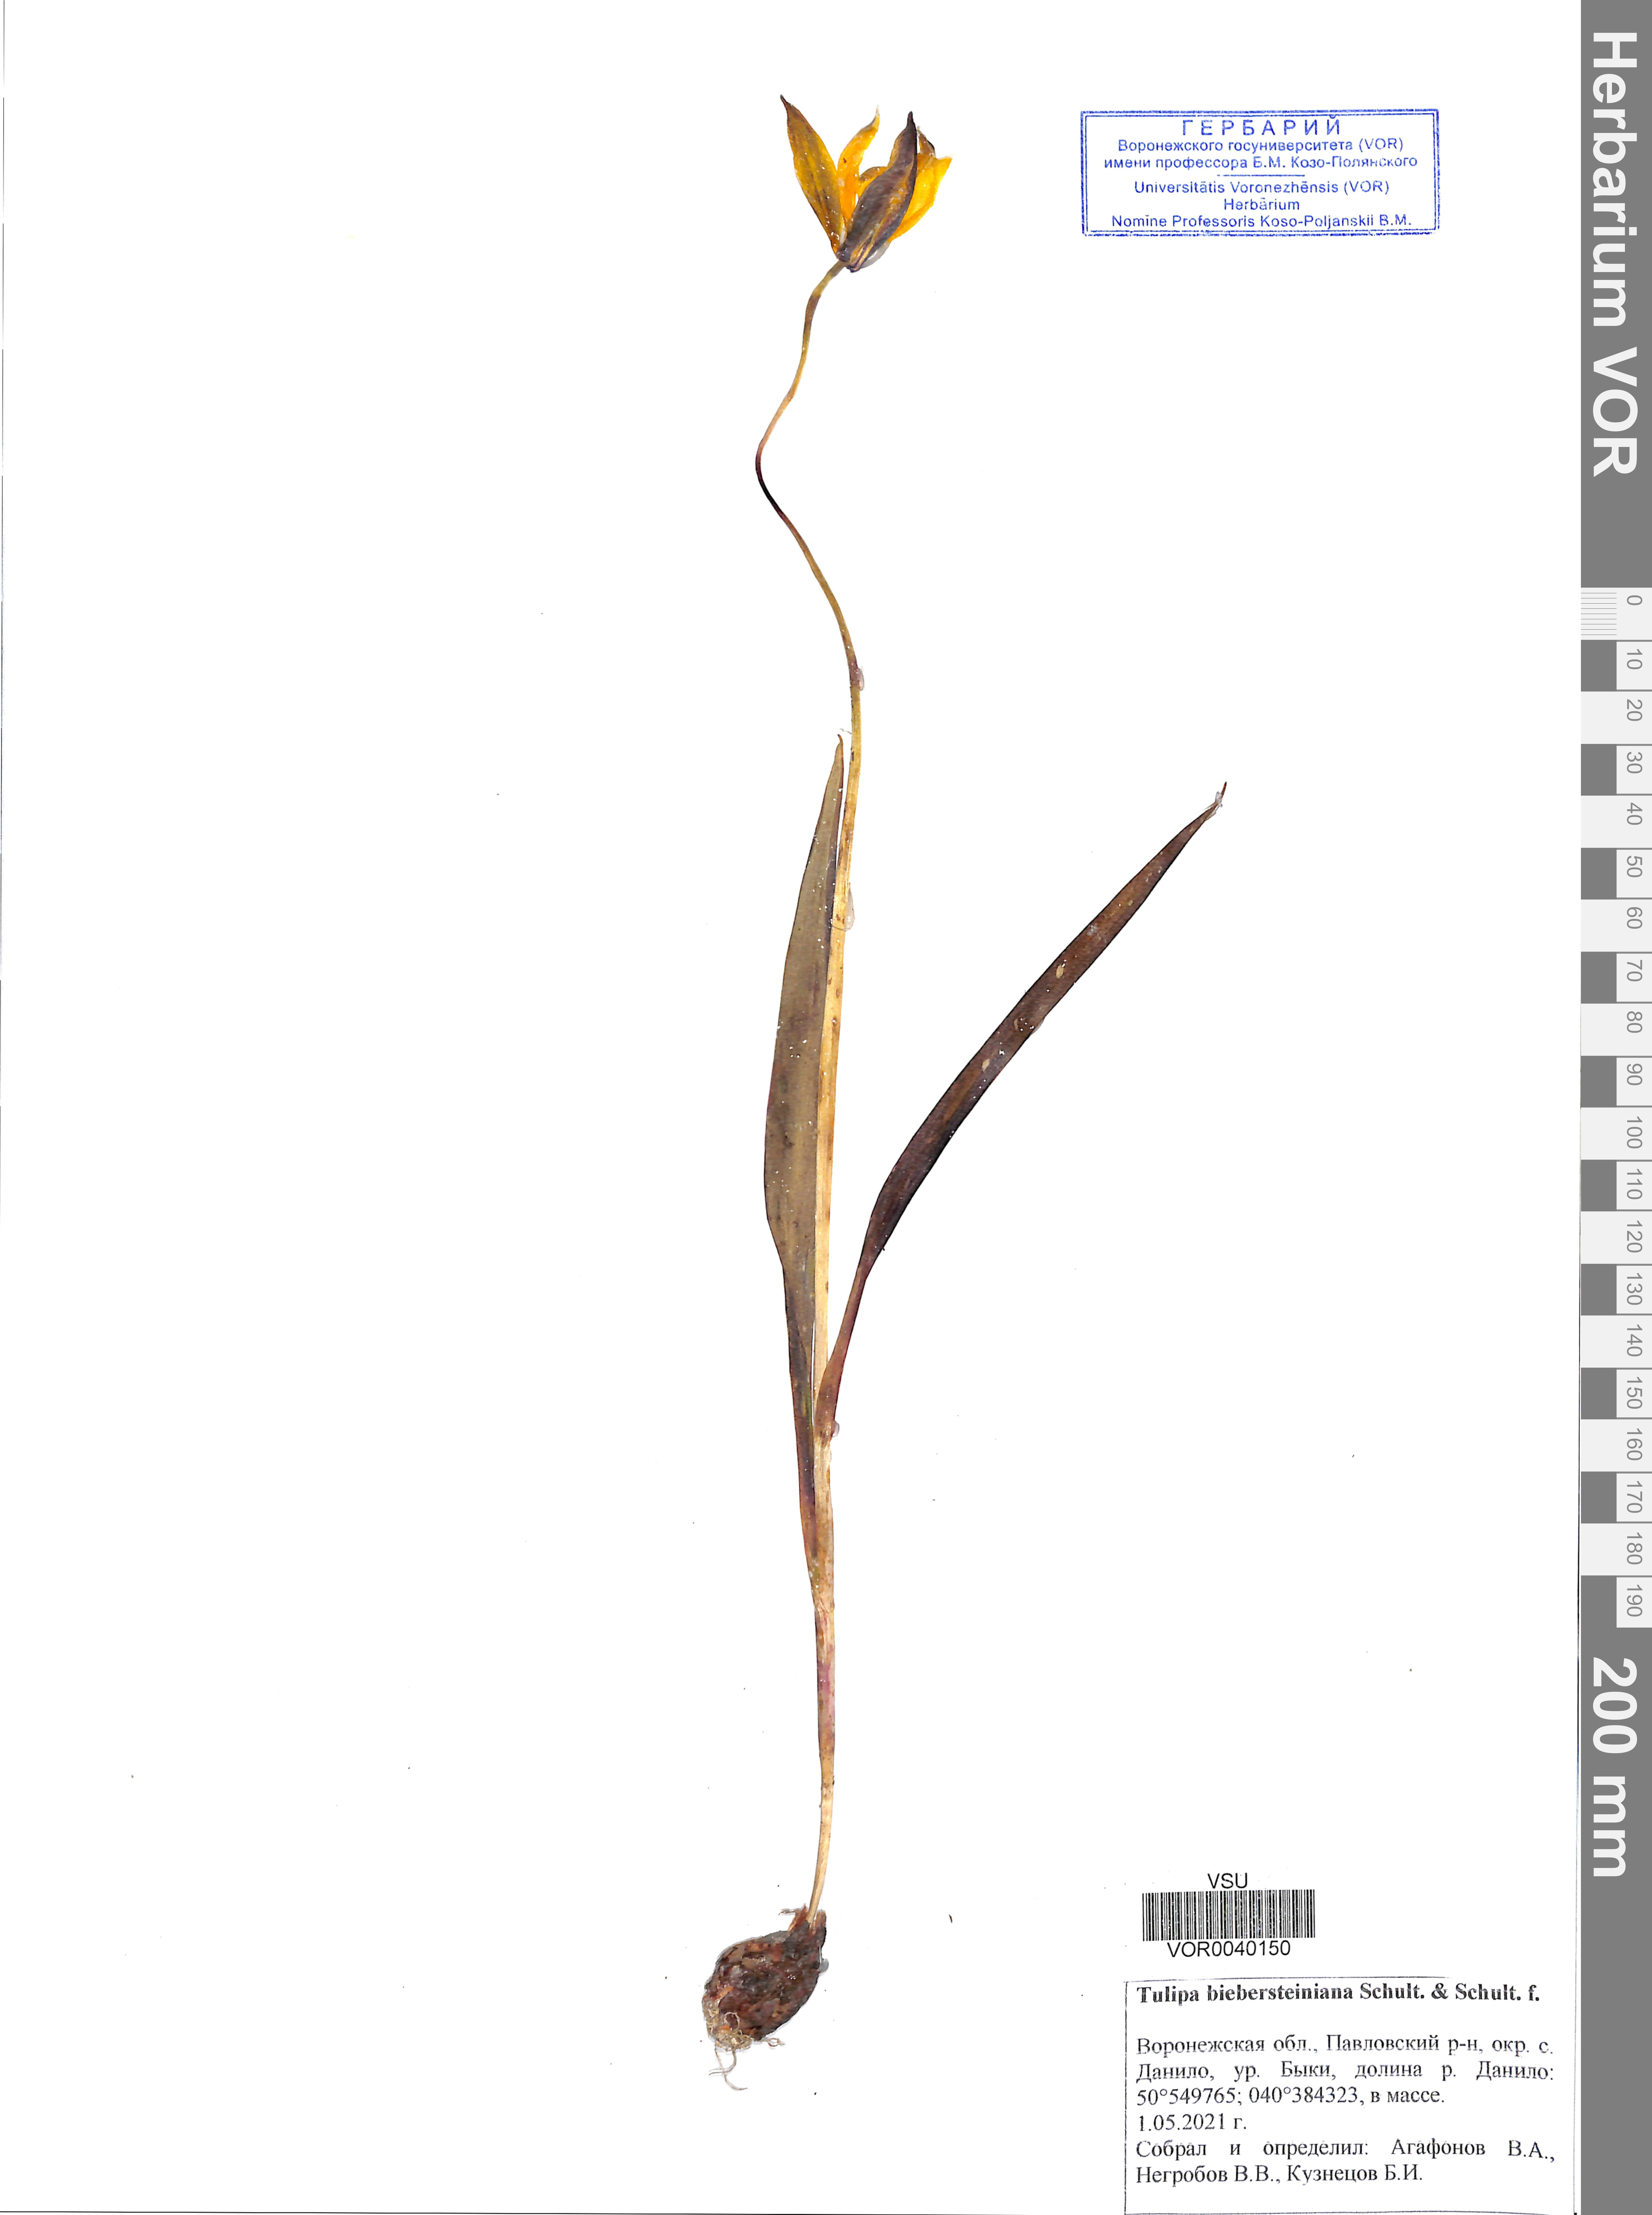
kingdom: Plantae
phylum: Tracheophyta
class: Liliopsida
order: Liliales
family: Liliaceae
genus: Tulipa
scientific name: Tulipa sylvestris
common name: Wild tulip
